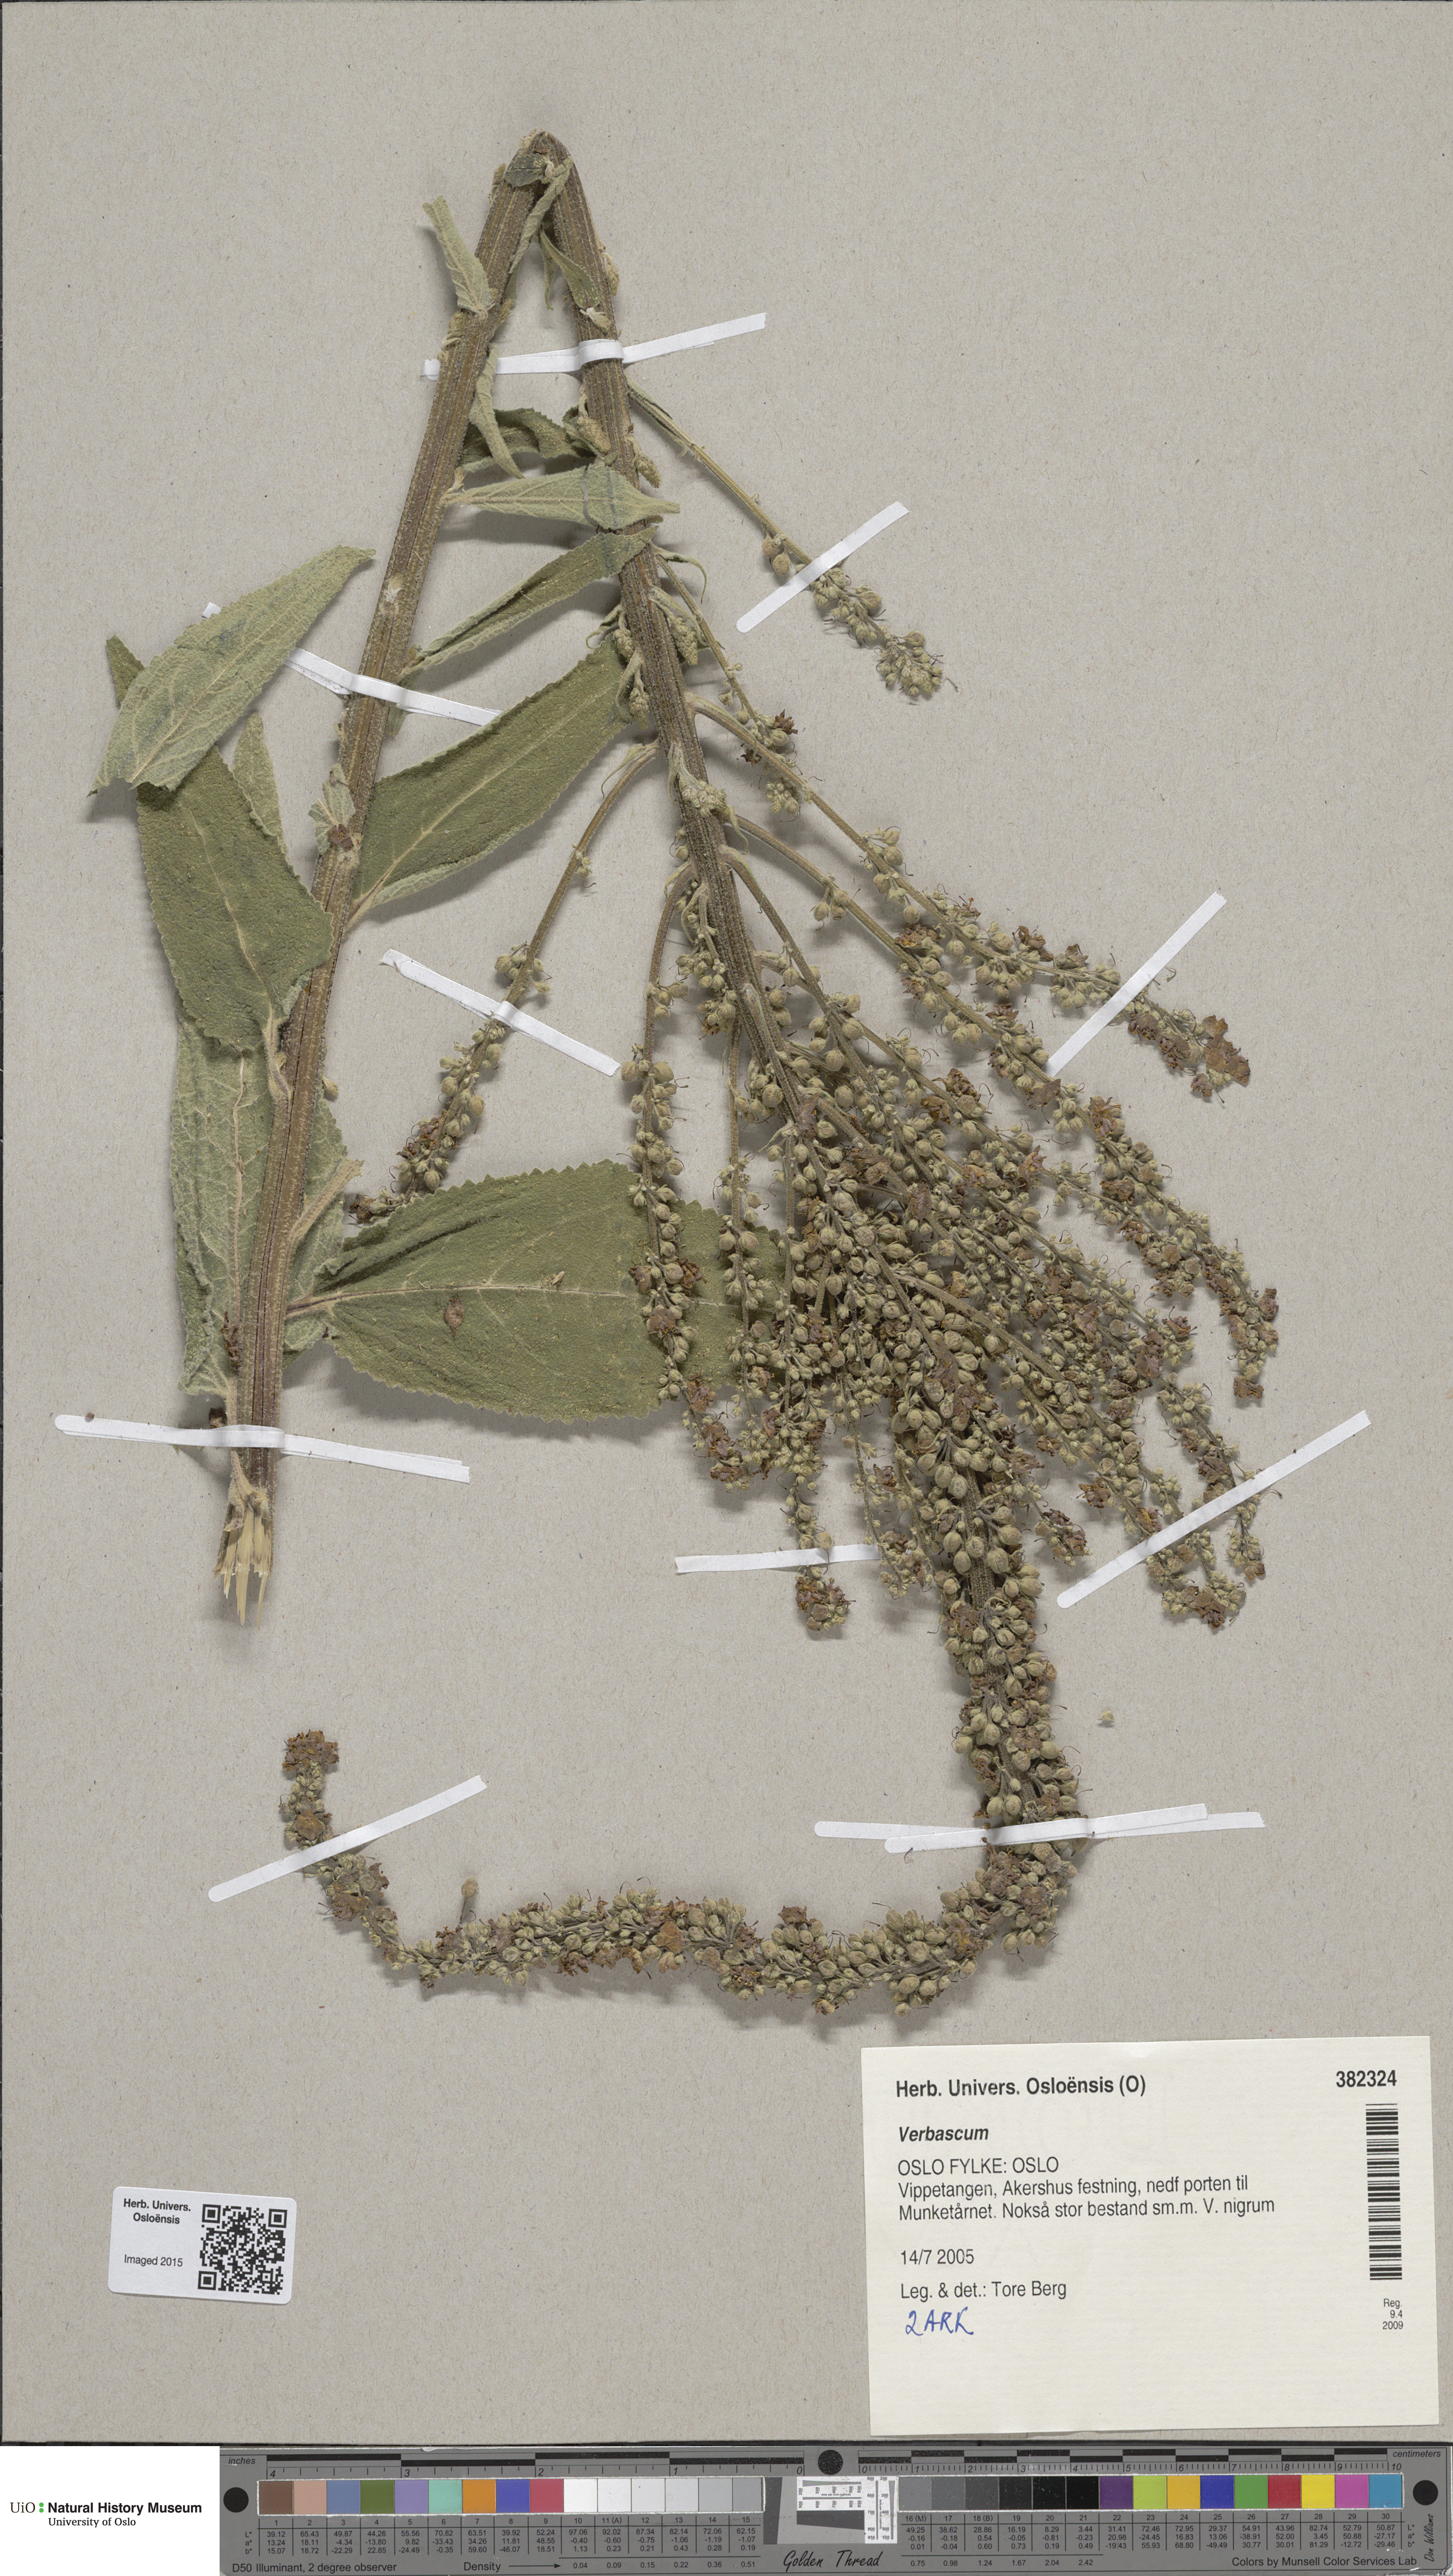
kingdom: Plantae
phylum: Tracheophyta
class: Magnoliopsida
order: Lamiales
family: Scrophulariaceae
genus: Verbascum
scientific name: Verbascum nigrum
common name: Dark mullein
